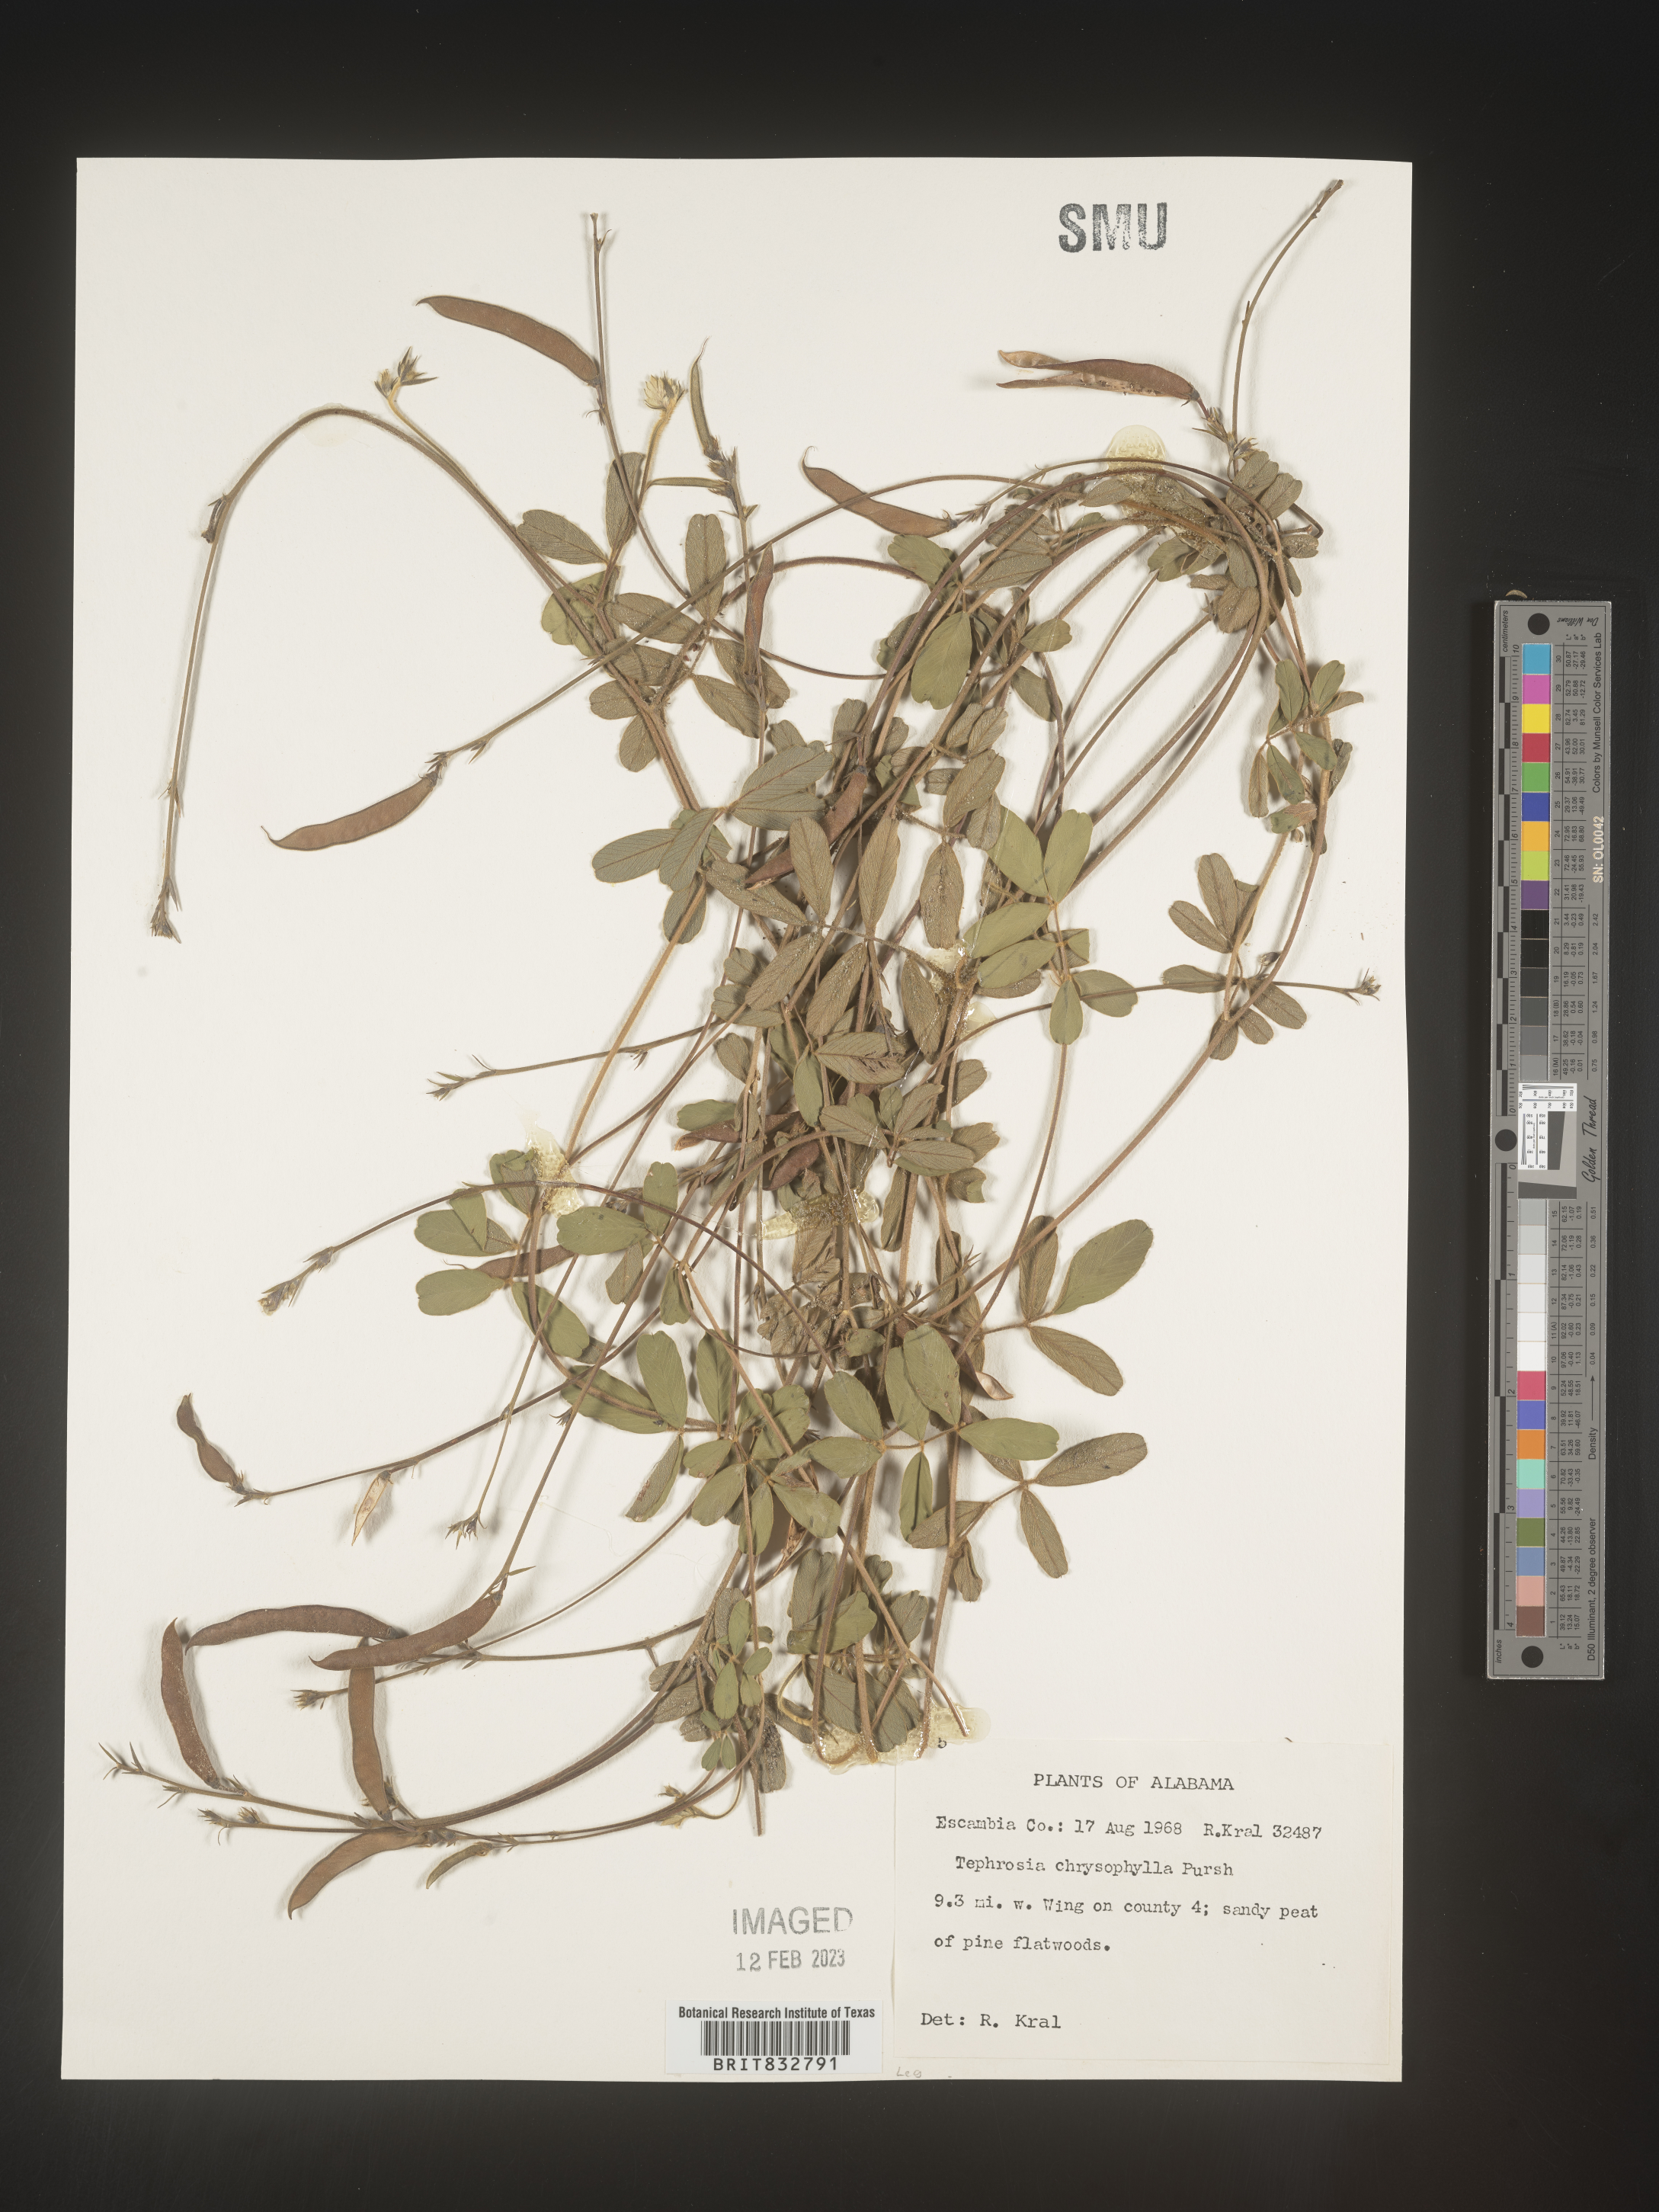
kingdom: Plantae
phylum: Tracheophyta
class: Magnoliopsida
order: Fabales
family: Fabaceae
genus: Tephrosia
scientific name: Tephrosia chrysophylla
